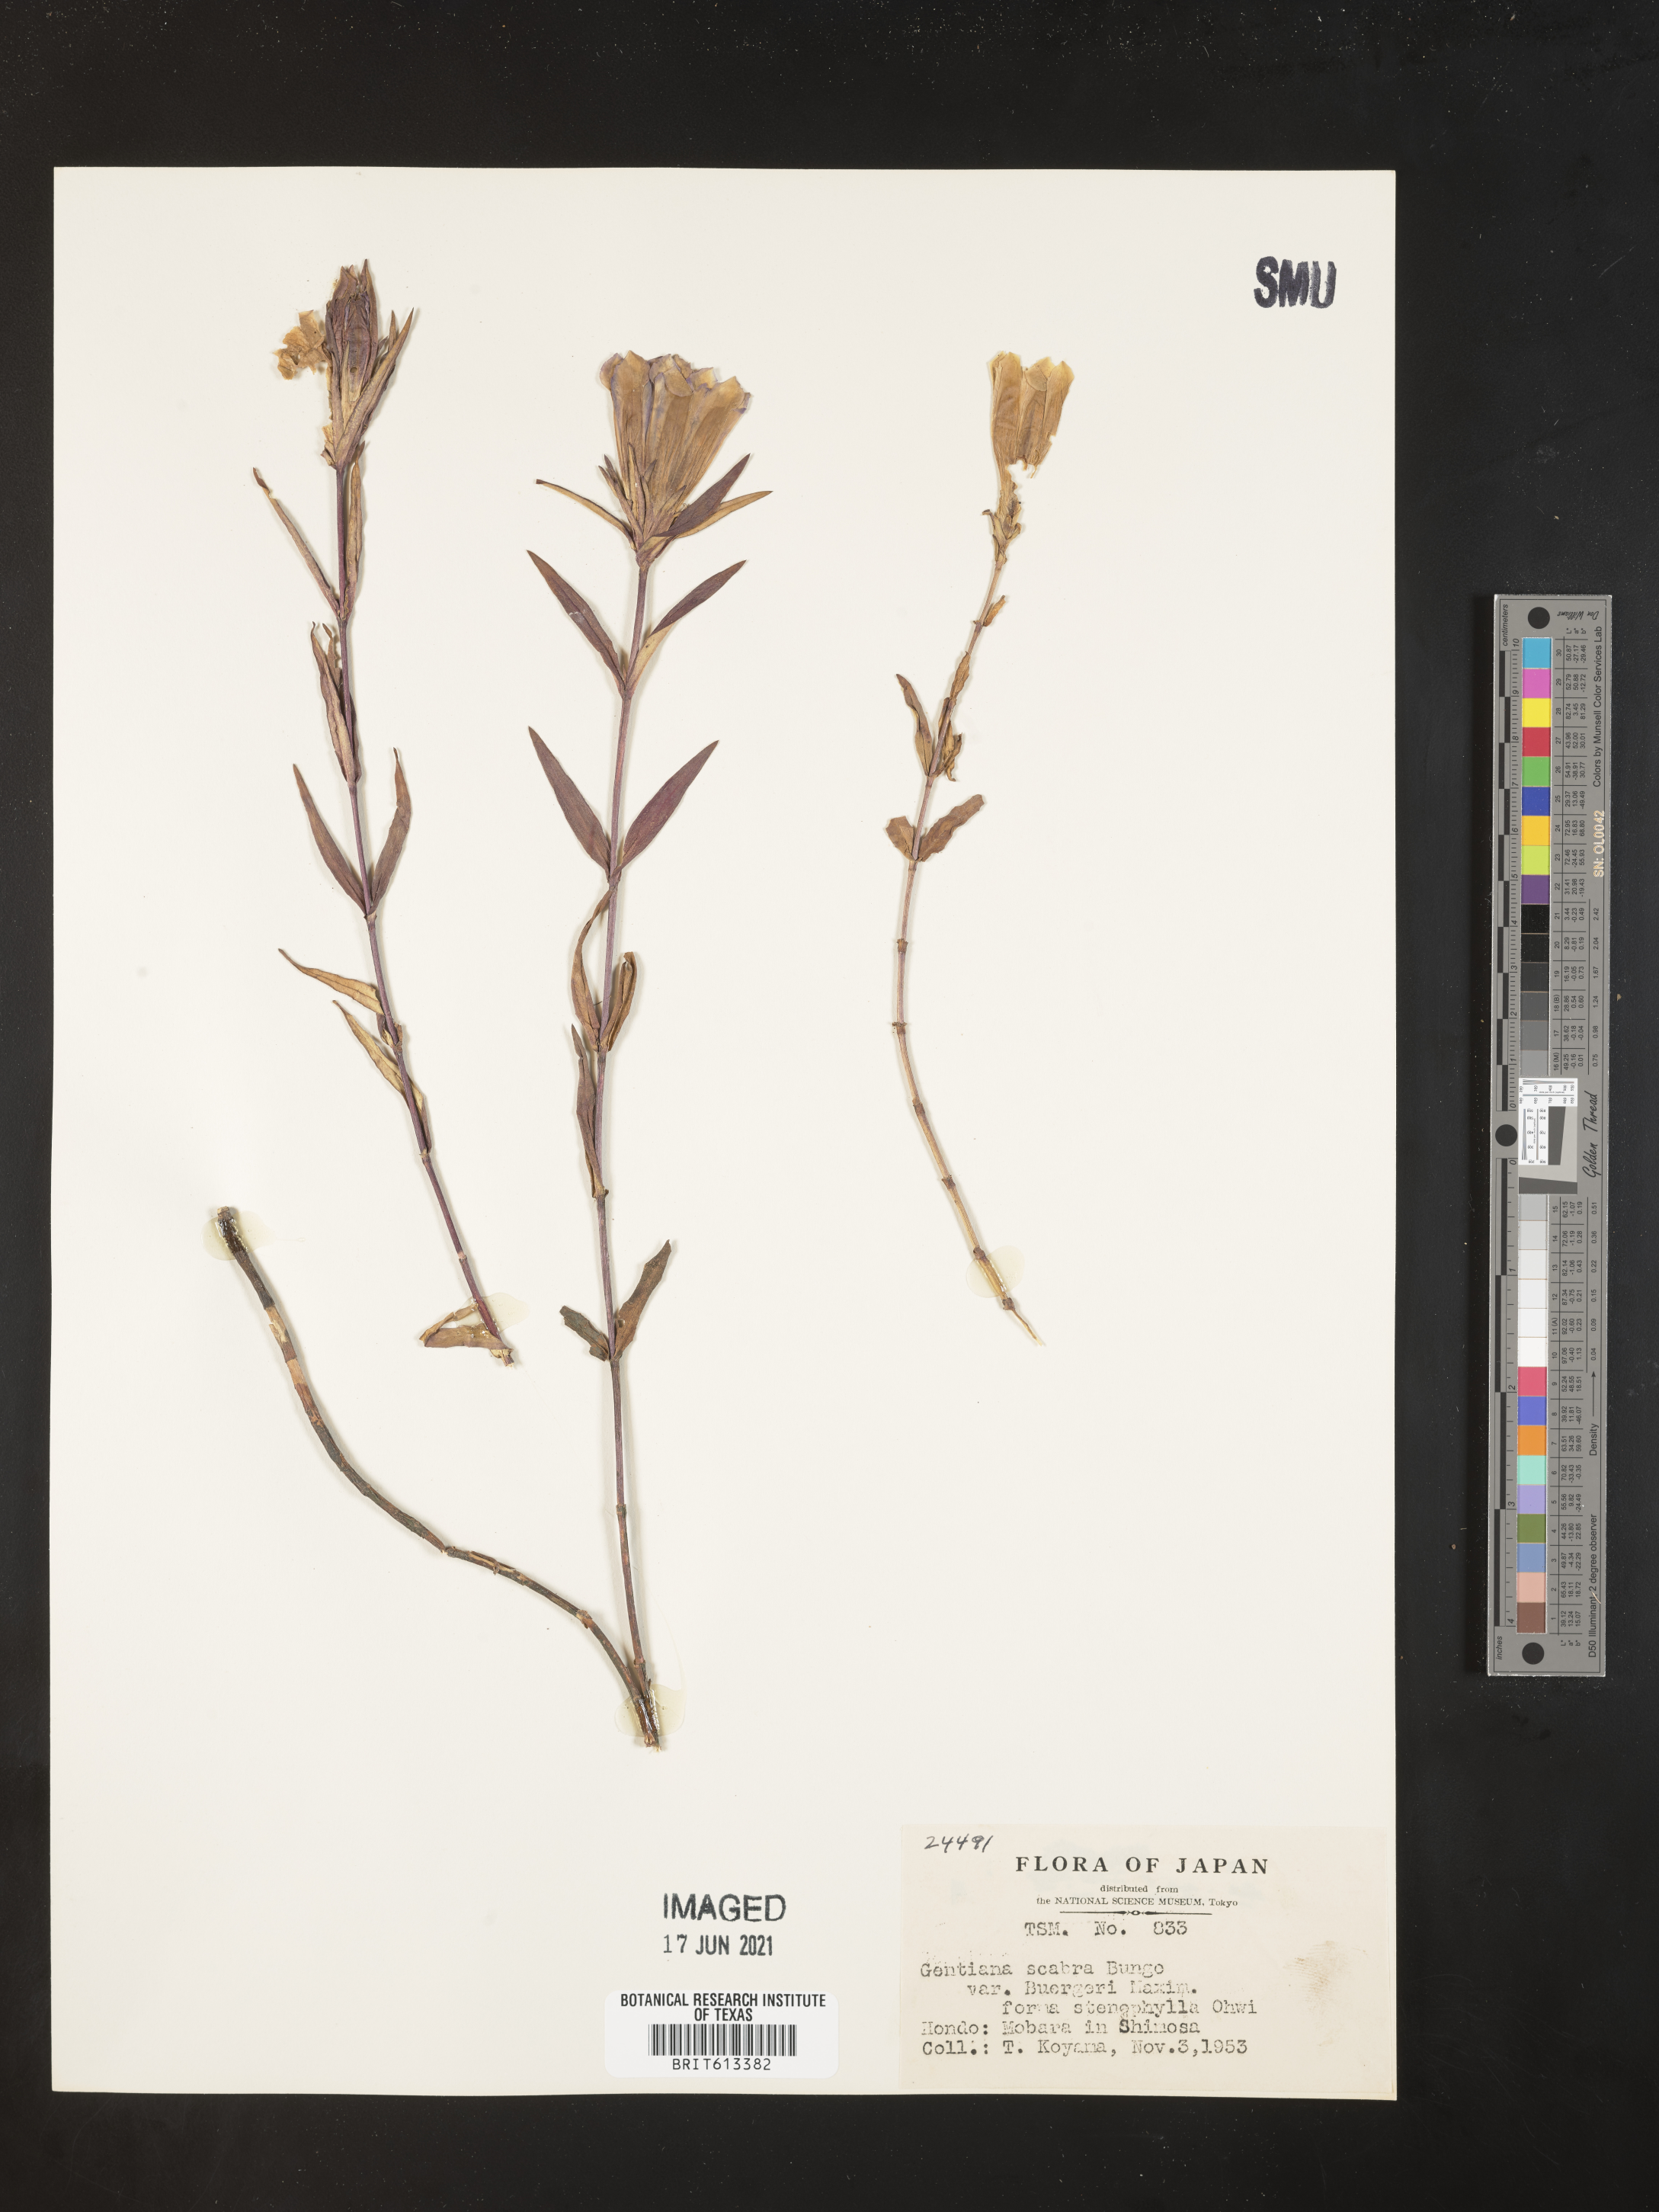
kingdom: Plantae
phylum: Tracheophyta
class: Magnoliopsida
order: Gentianales
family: Gentianaceae
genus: Gentiana
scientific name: Gentiana scabra
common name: Scabrous gentian
